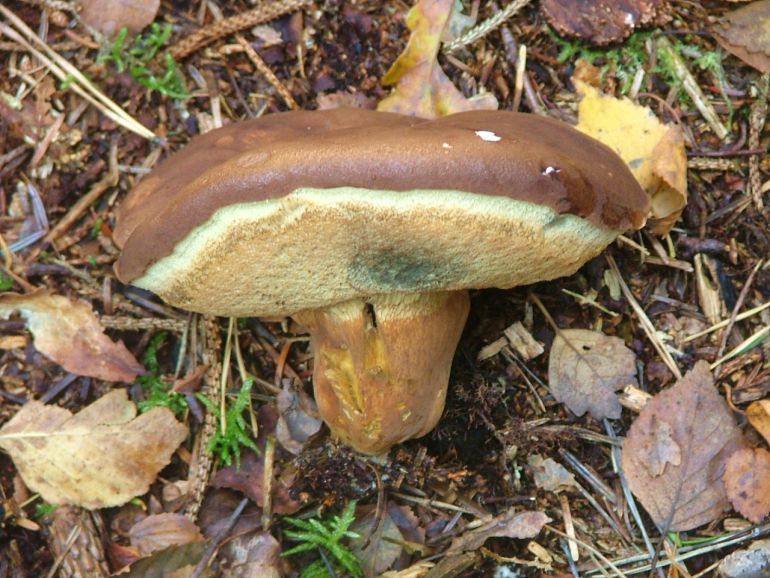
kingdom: Fungi
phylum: Basidiomycota
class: Agaricomycetes
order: Boletales
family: Boletaceae
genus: Imleria
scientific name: Imleria badia
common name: brunstokket rørhat
